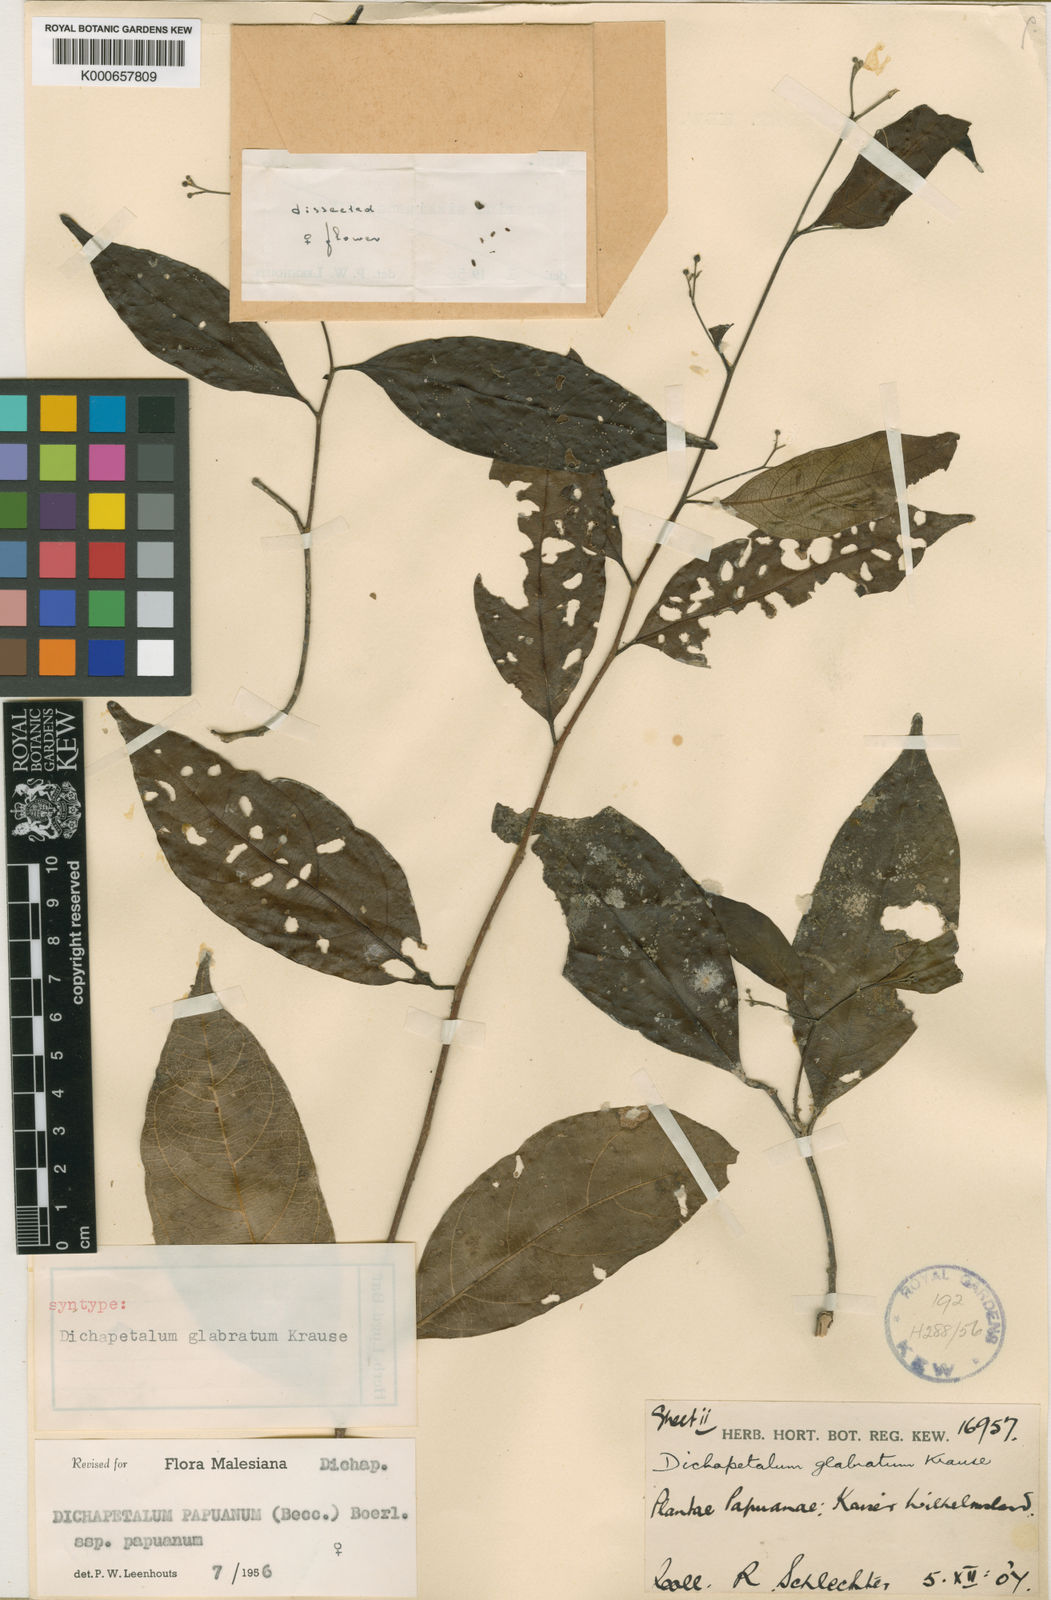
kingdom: Plantae
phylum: Tracheophyta
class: Magnoliopsida
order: Malpighiales
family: Dichapetalaceae
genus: Dichapetalum
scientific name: Dichapetalum papuanum
